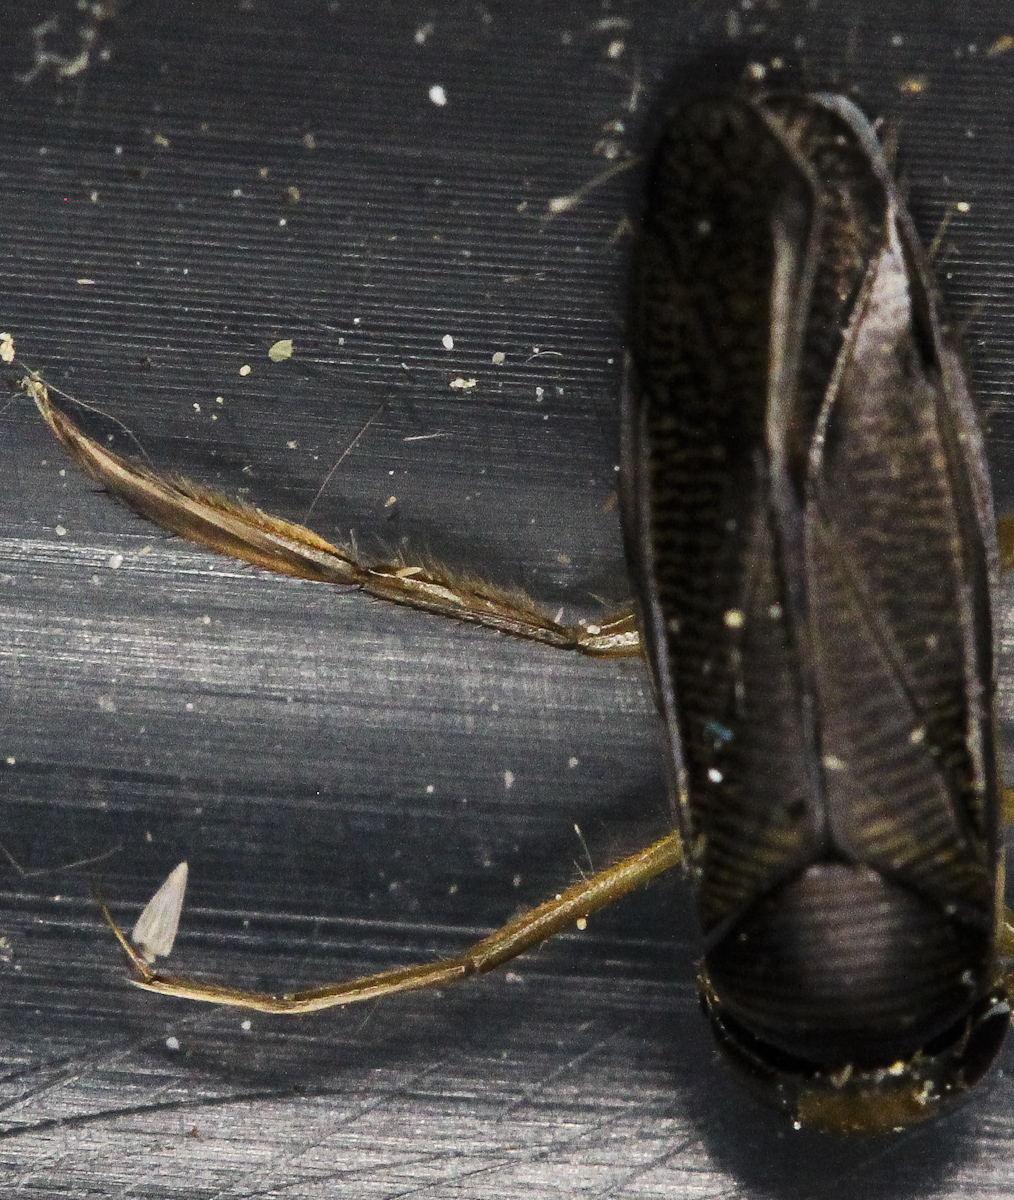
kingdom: Animalia
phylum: Arthropoda
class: Insecta
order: Hemiptera
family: Corixidae
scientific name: Corixidae
